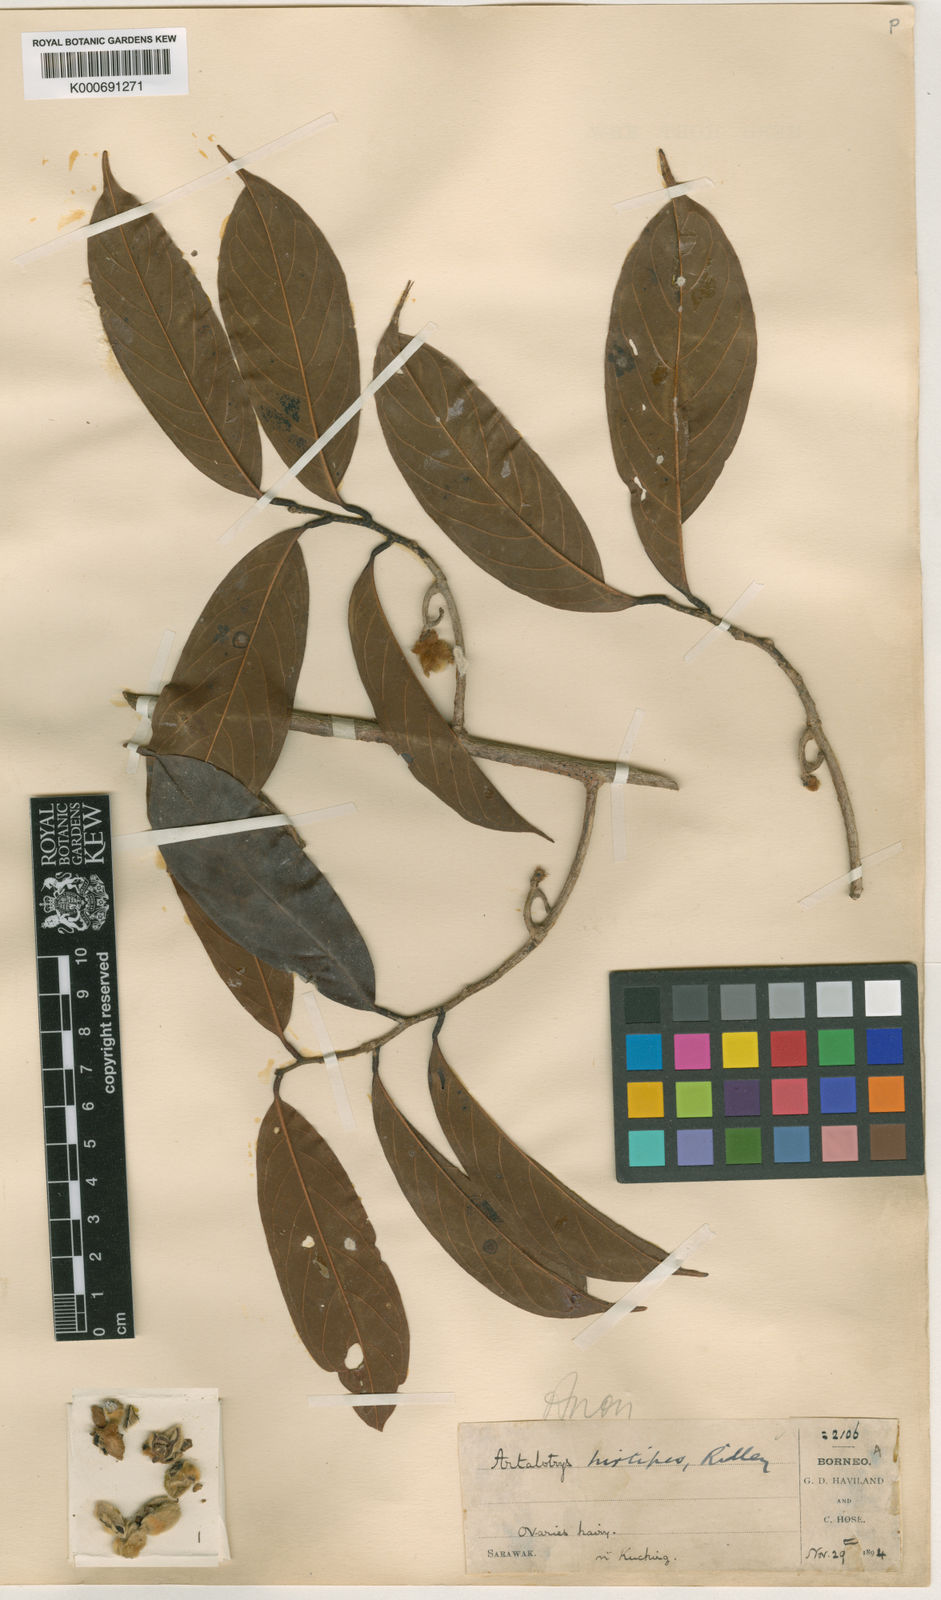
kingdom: Plantae
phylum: Tracheophyta
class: Magnoliopsida
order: Magnoliales
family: Annonaceae
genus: Artabotrys
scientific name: Artabotrys hirtipes
